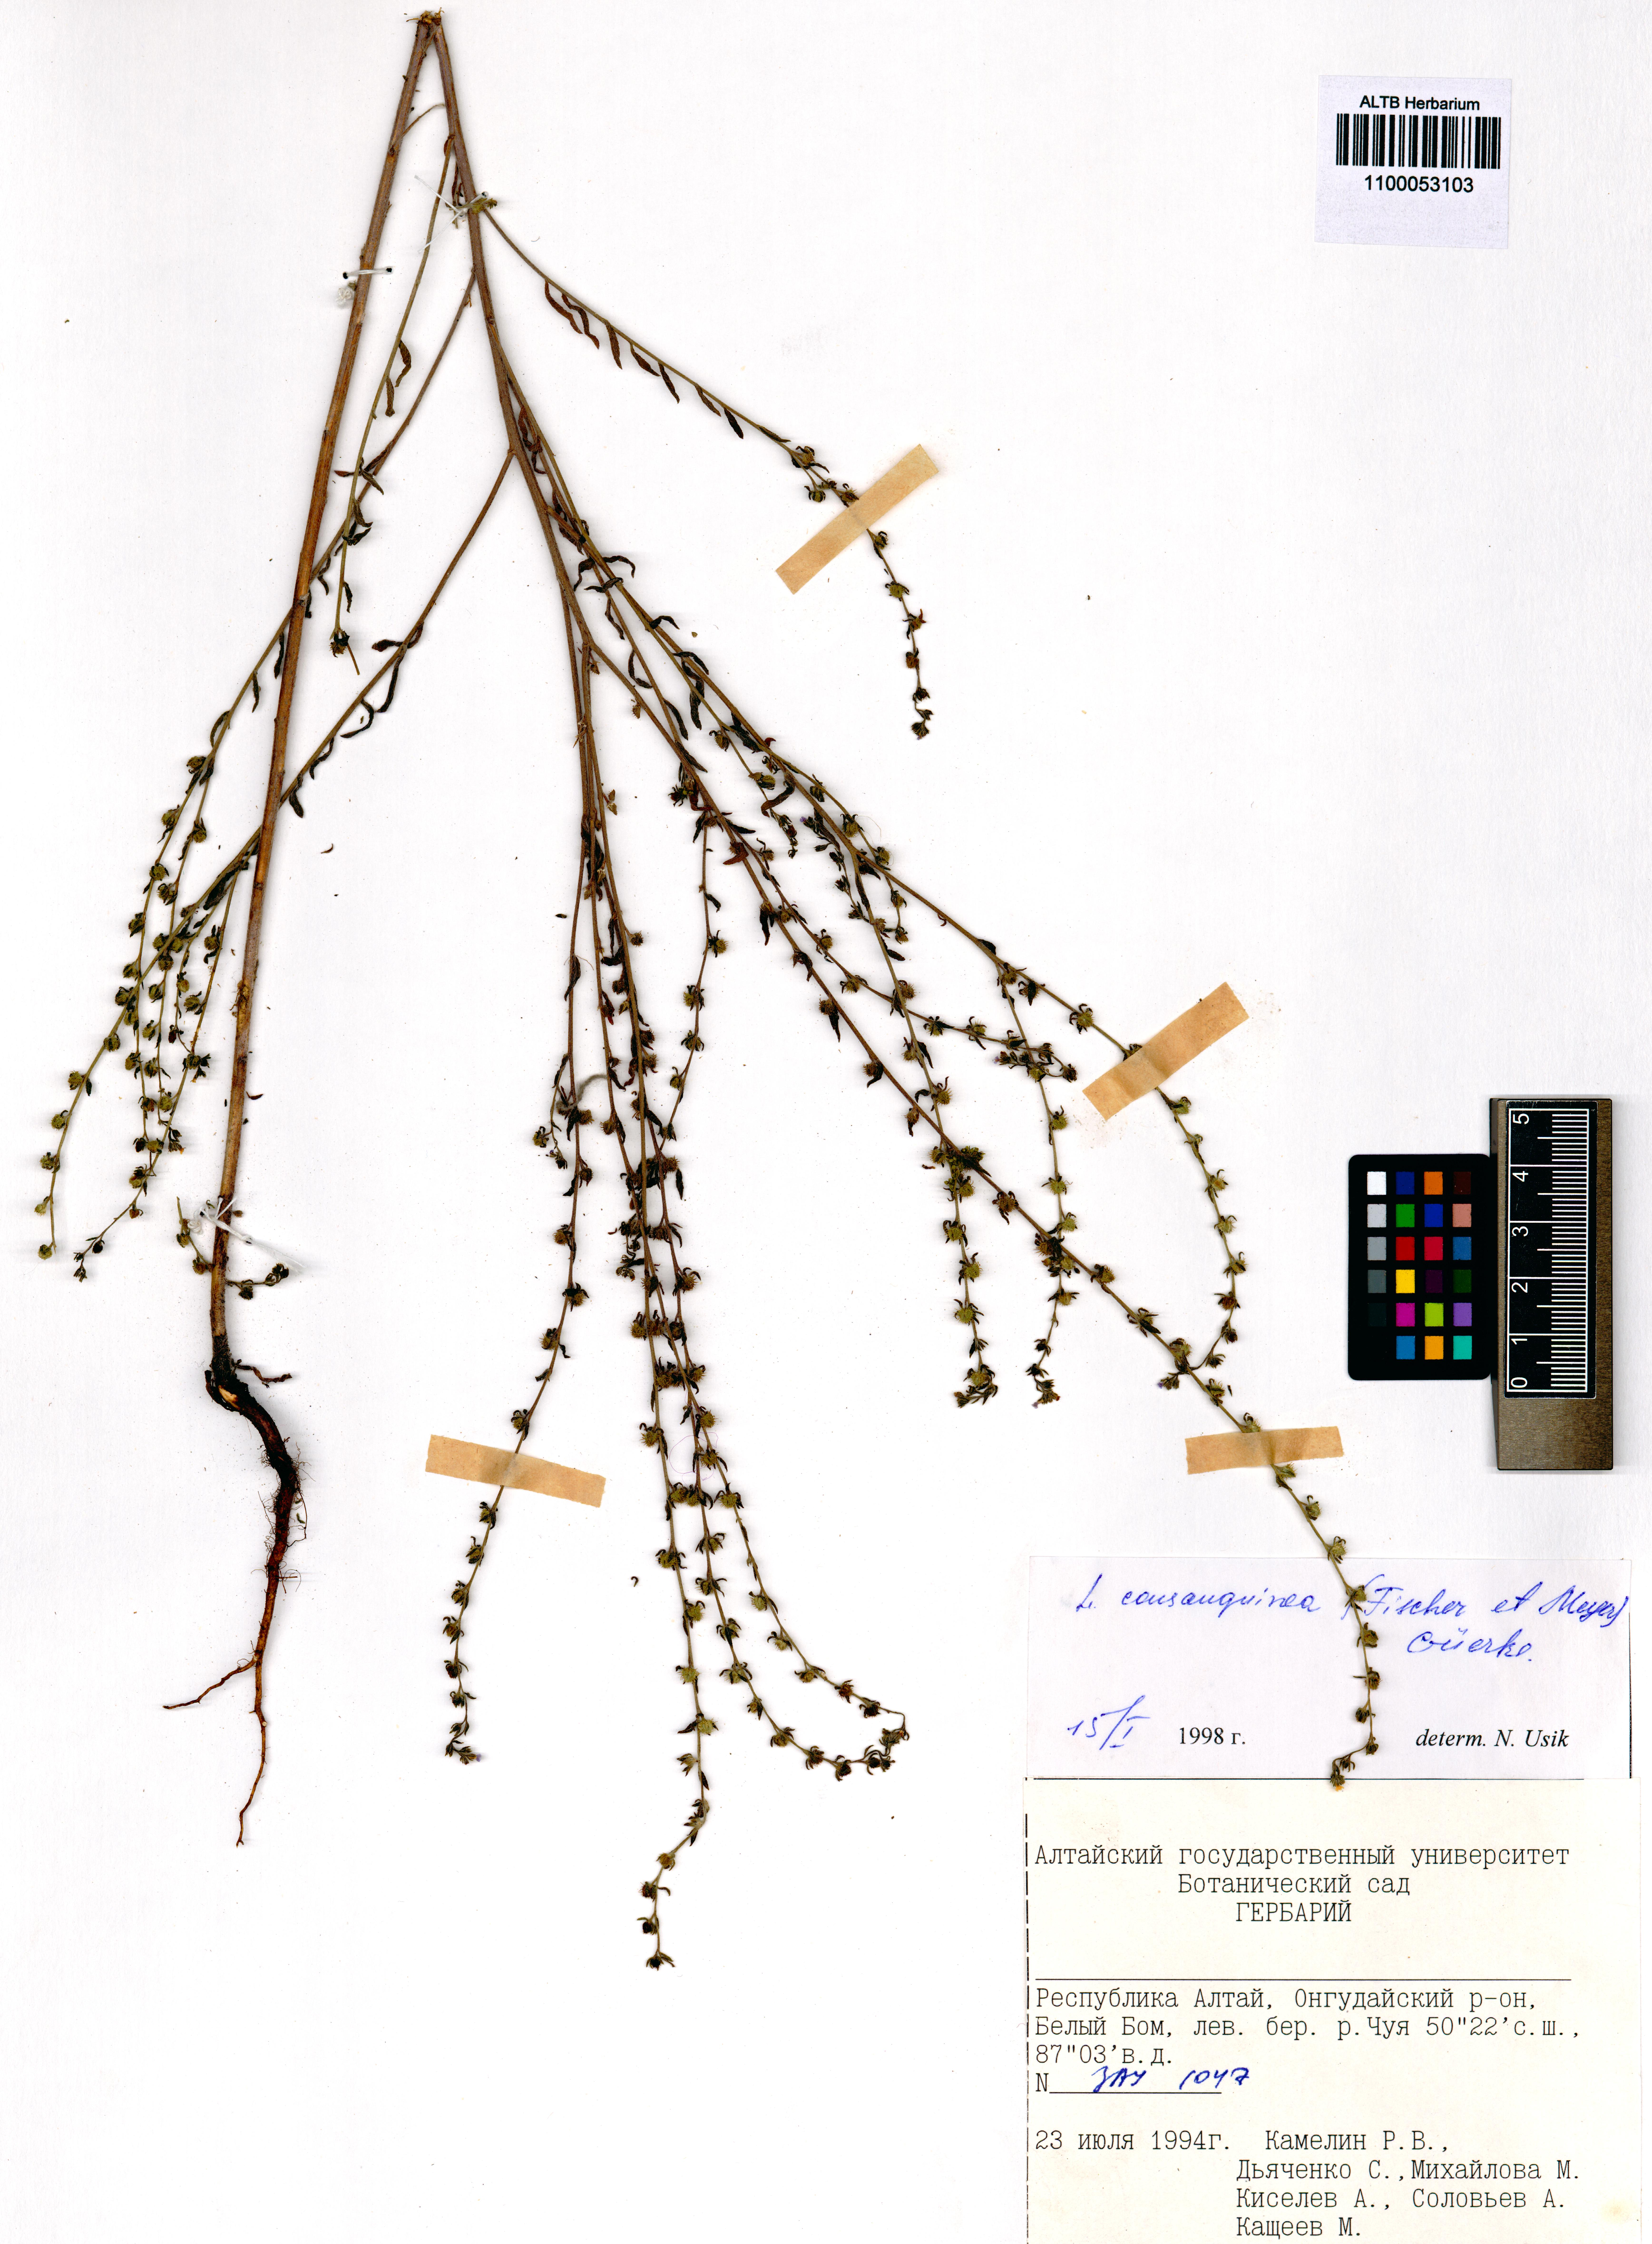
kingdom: Plantae
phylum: Tracheophyta
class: Magnoliopsida
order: Boraginales
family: Boraginaceae
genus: Lappula
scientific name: Lappula squarrosa
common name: European stickseed
